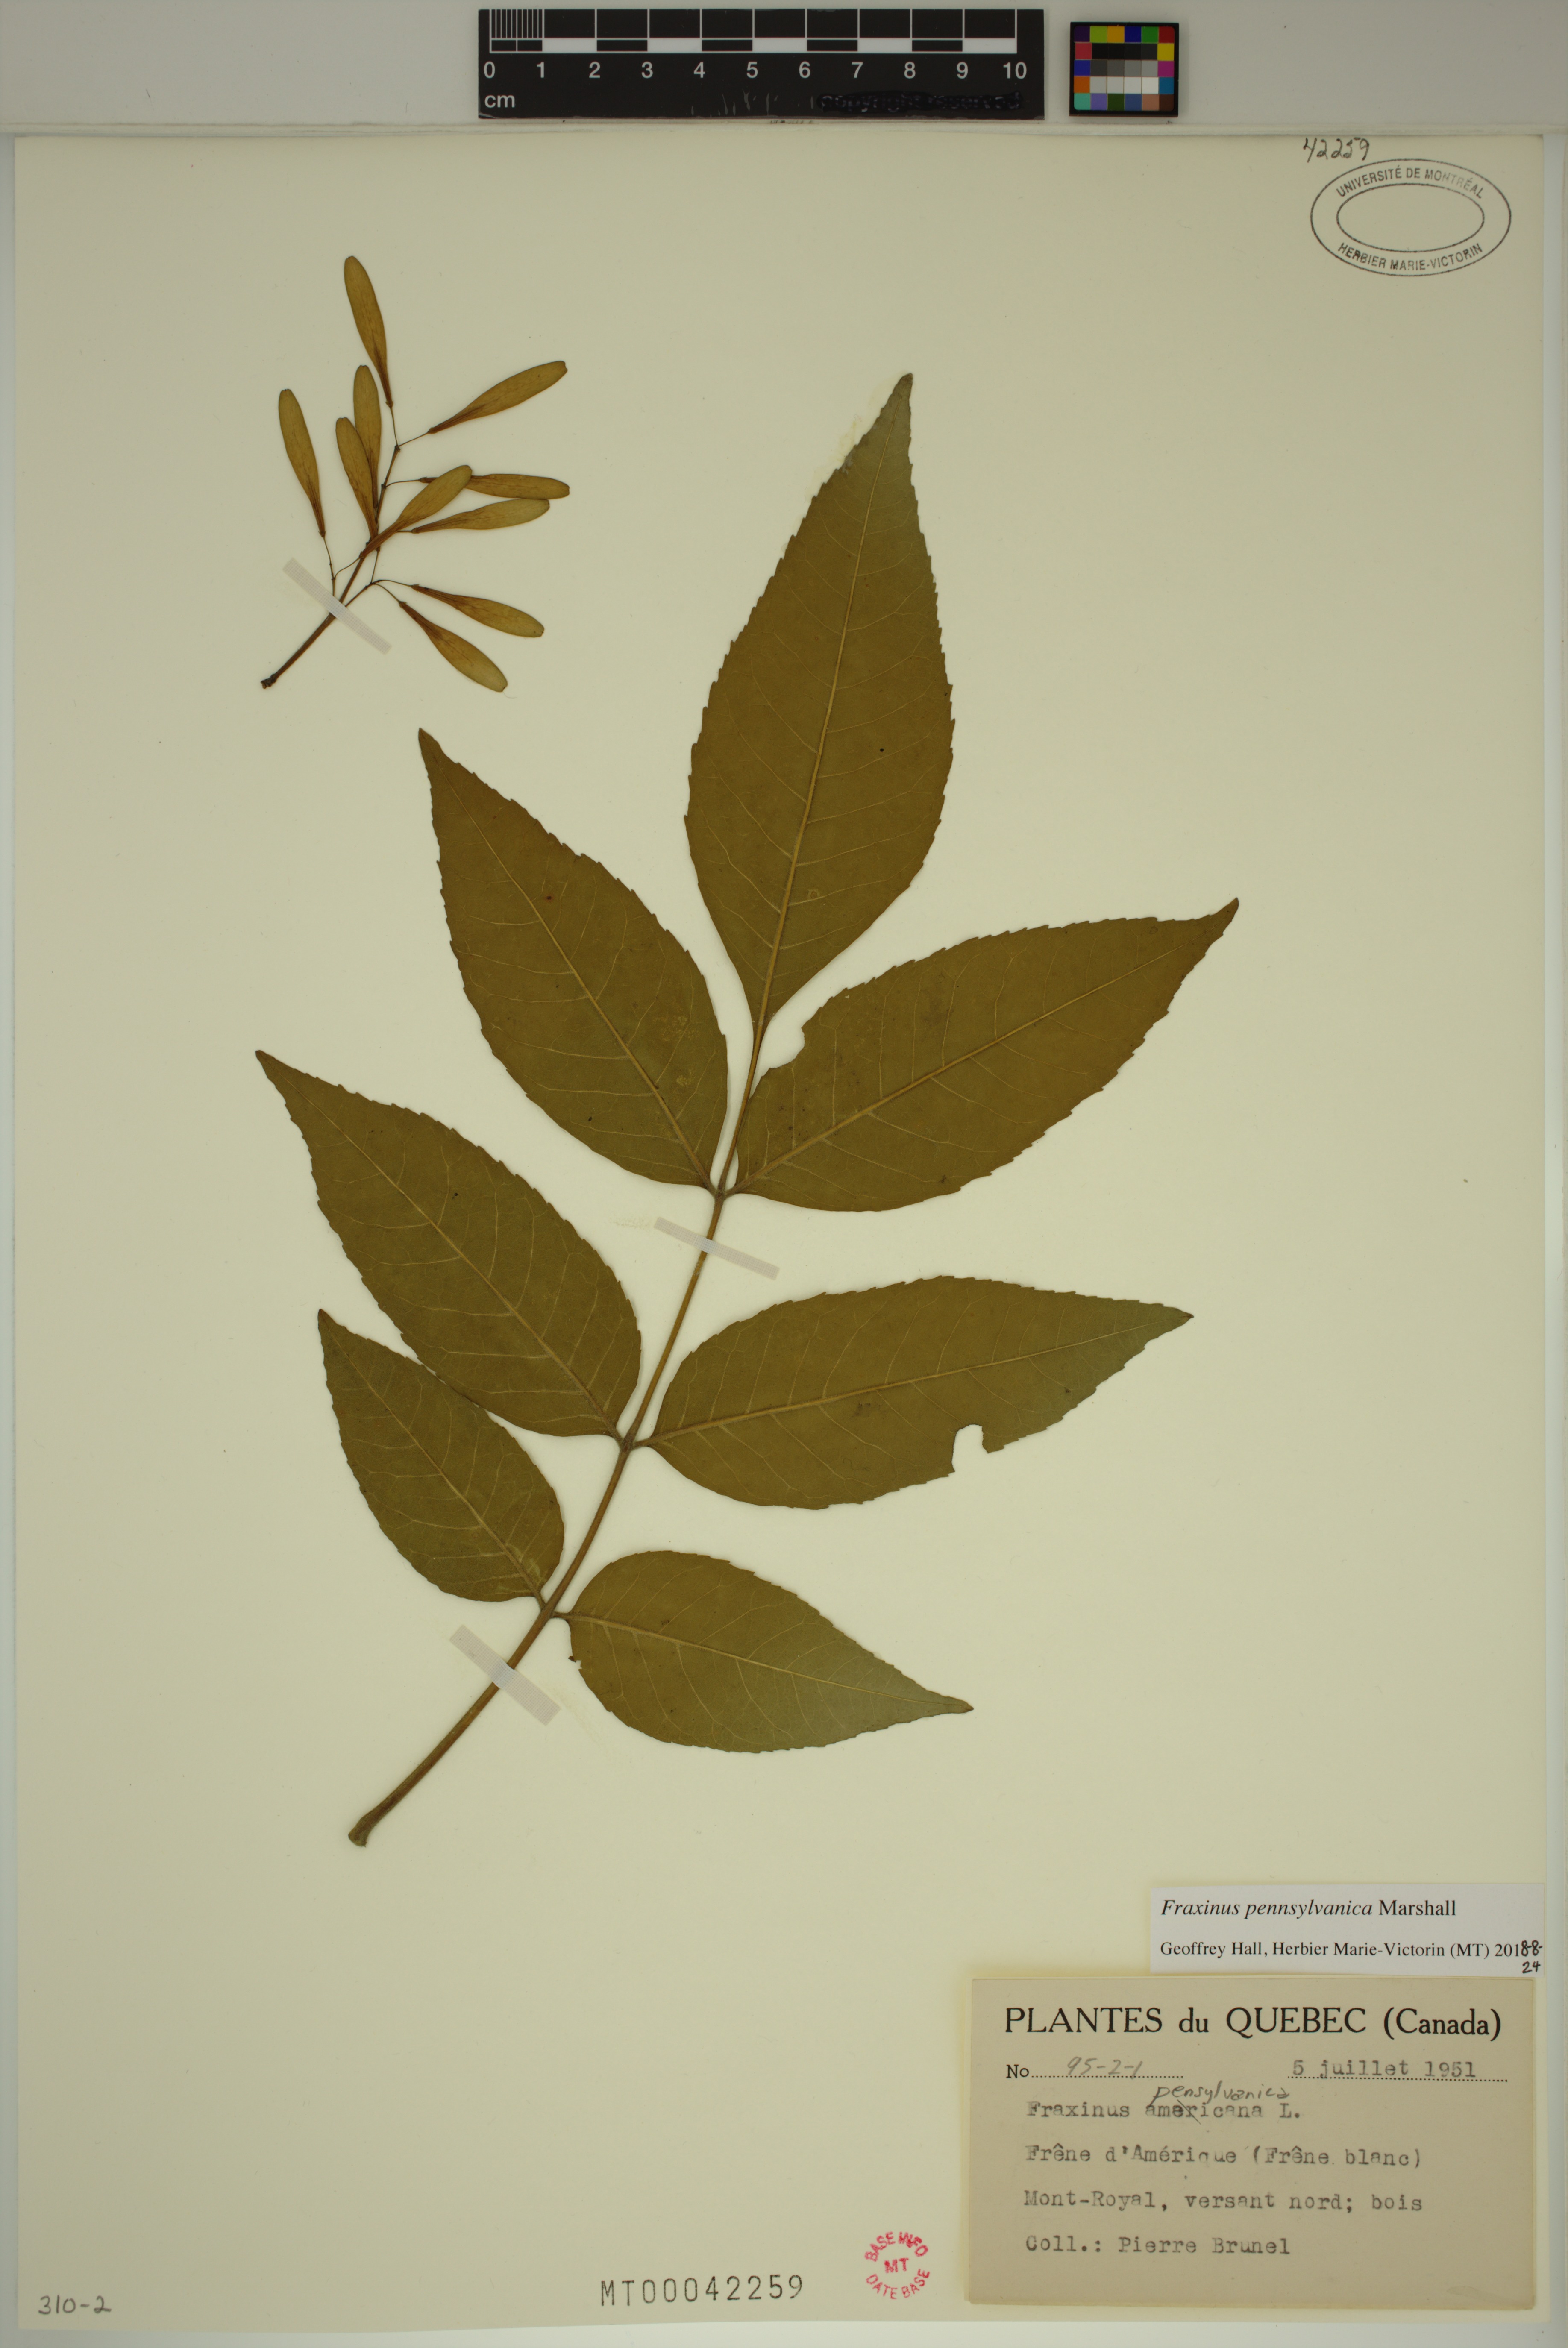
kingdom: Plantae
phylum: Tracheophyta
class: Magnoliopsida
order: Lamiales
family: Oleaceae
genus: Fraxinus
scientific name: Fraxinus pennsylvanica
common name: Green ash
